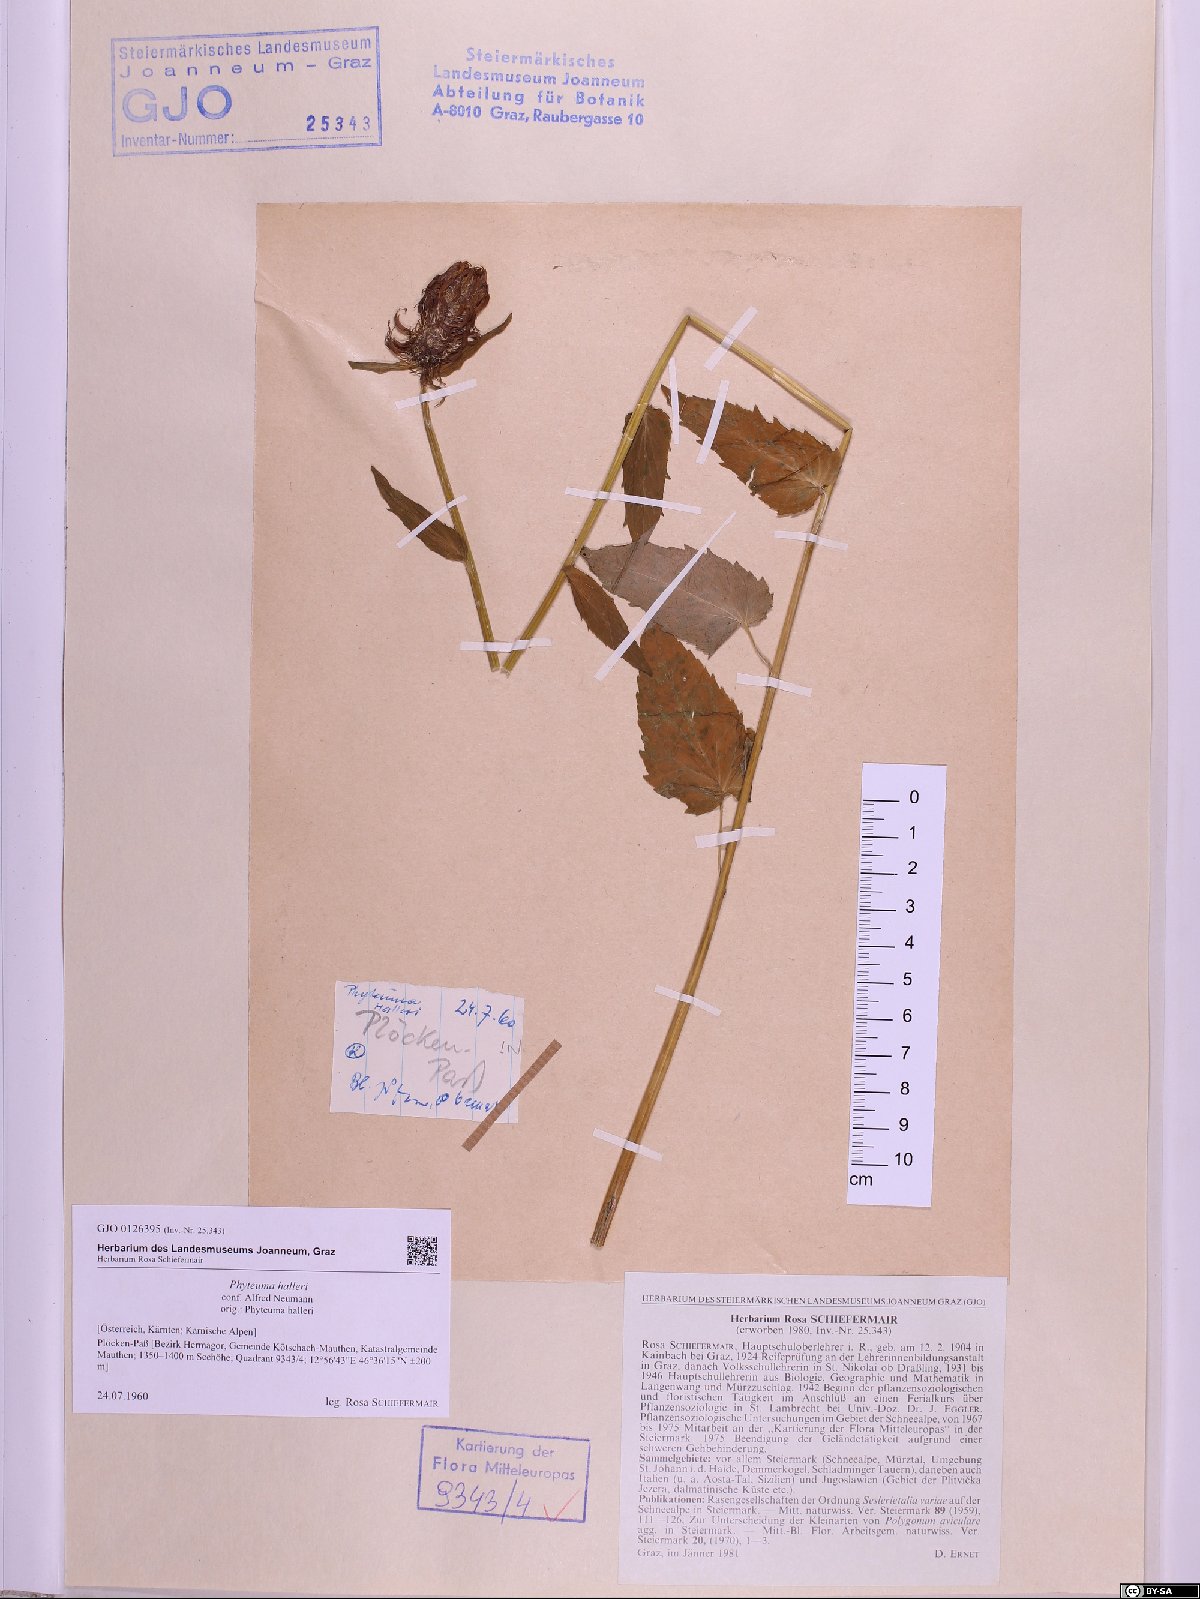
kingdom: Plantae
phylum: Tracheophyta
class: Magnoliopsida
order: Asterales
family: Campanulaceae
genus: Phyteuma
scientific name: Phyteuma ovatum
